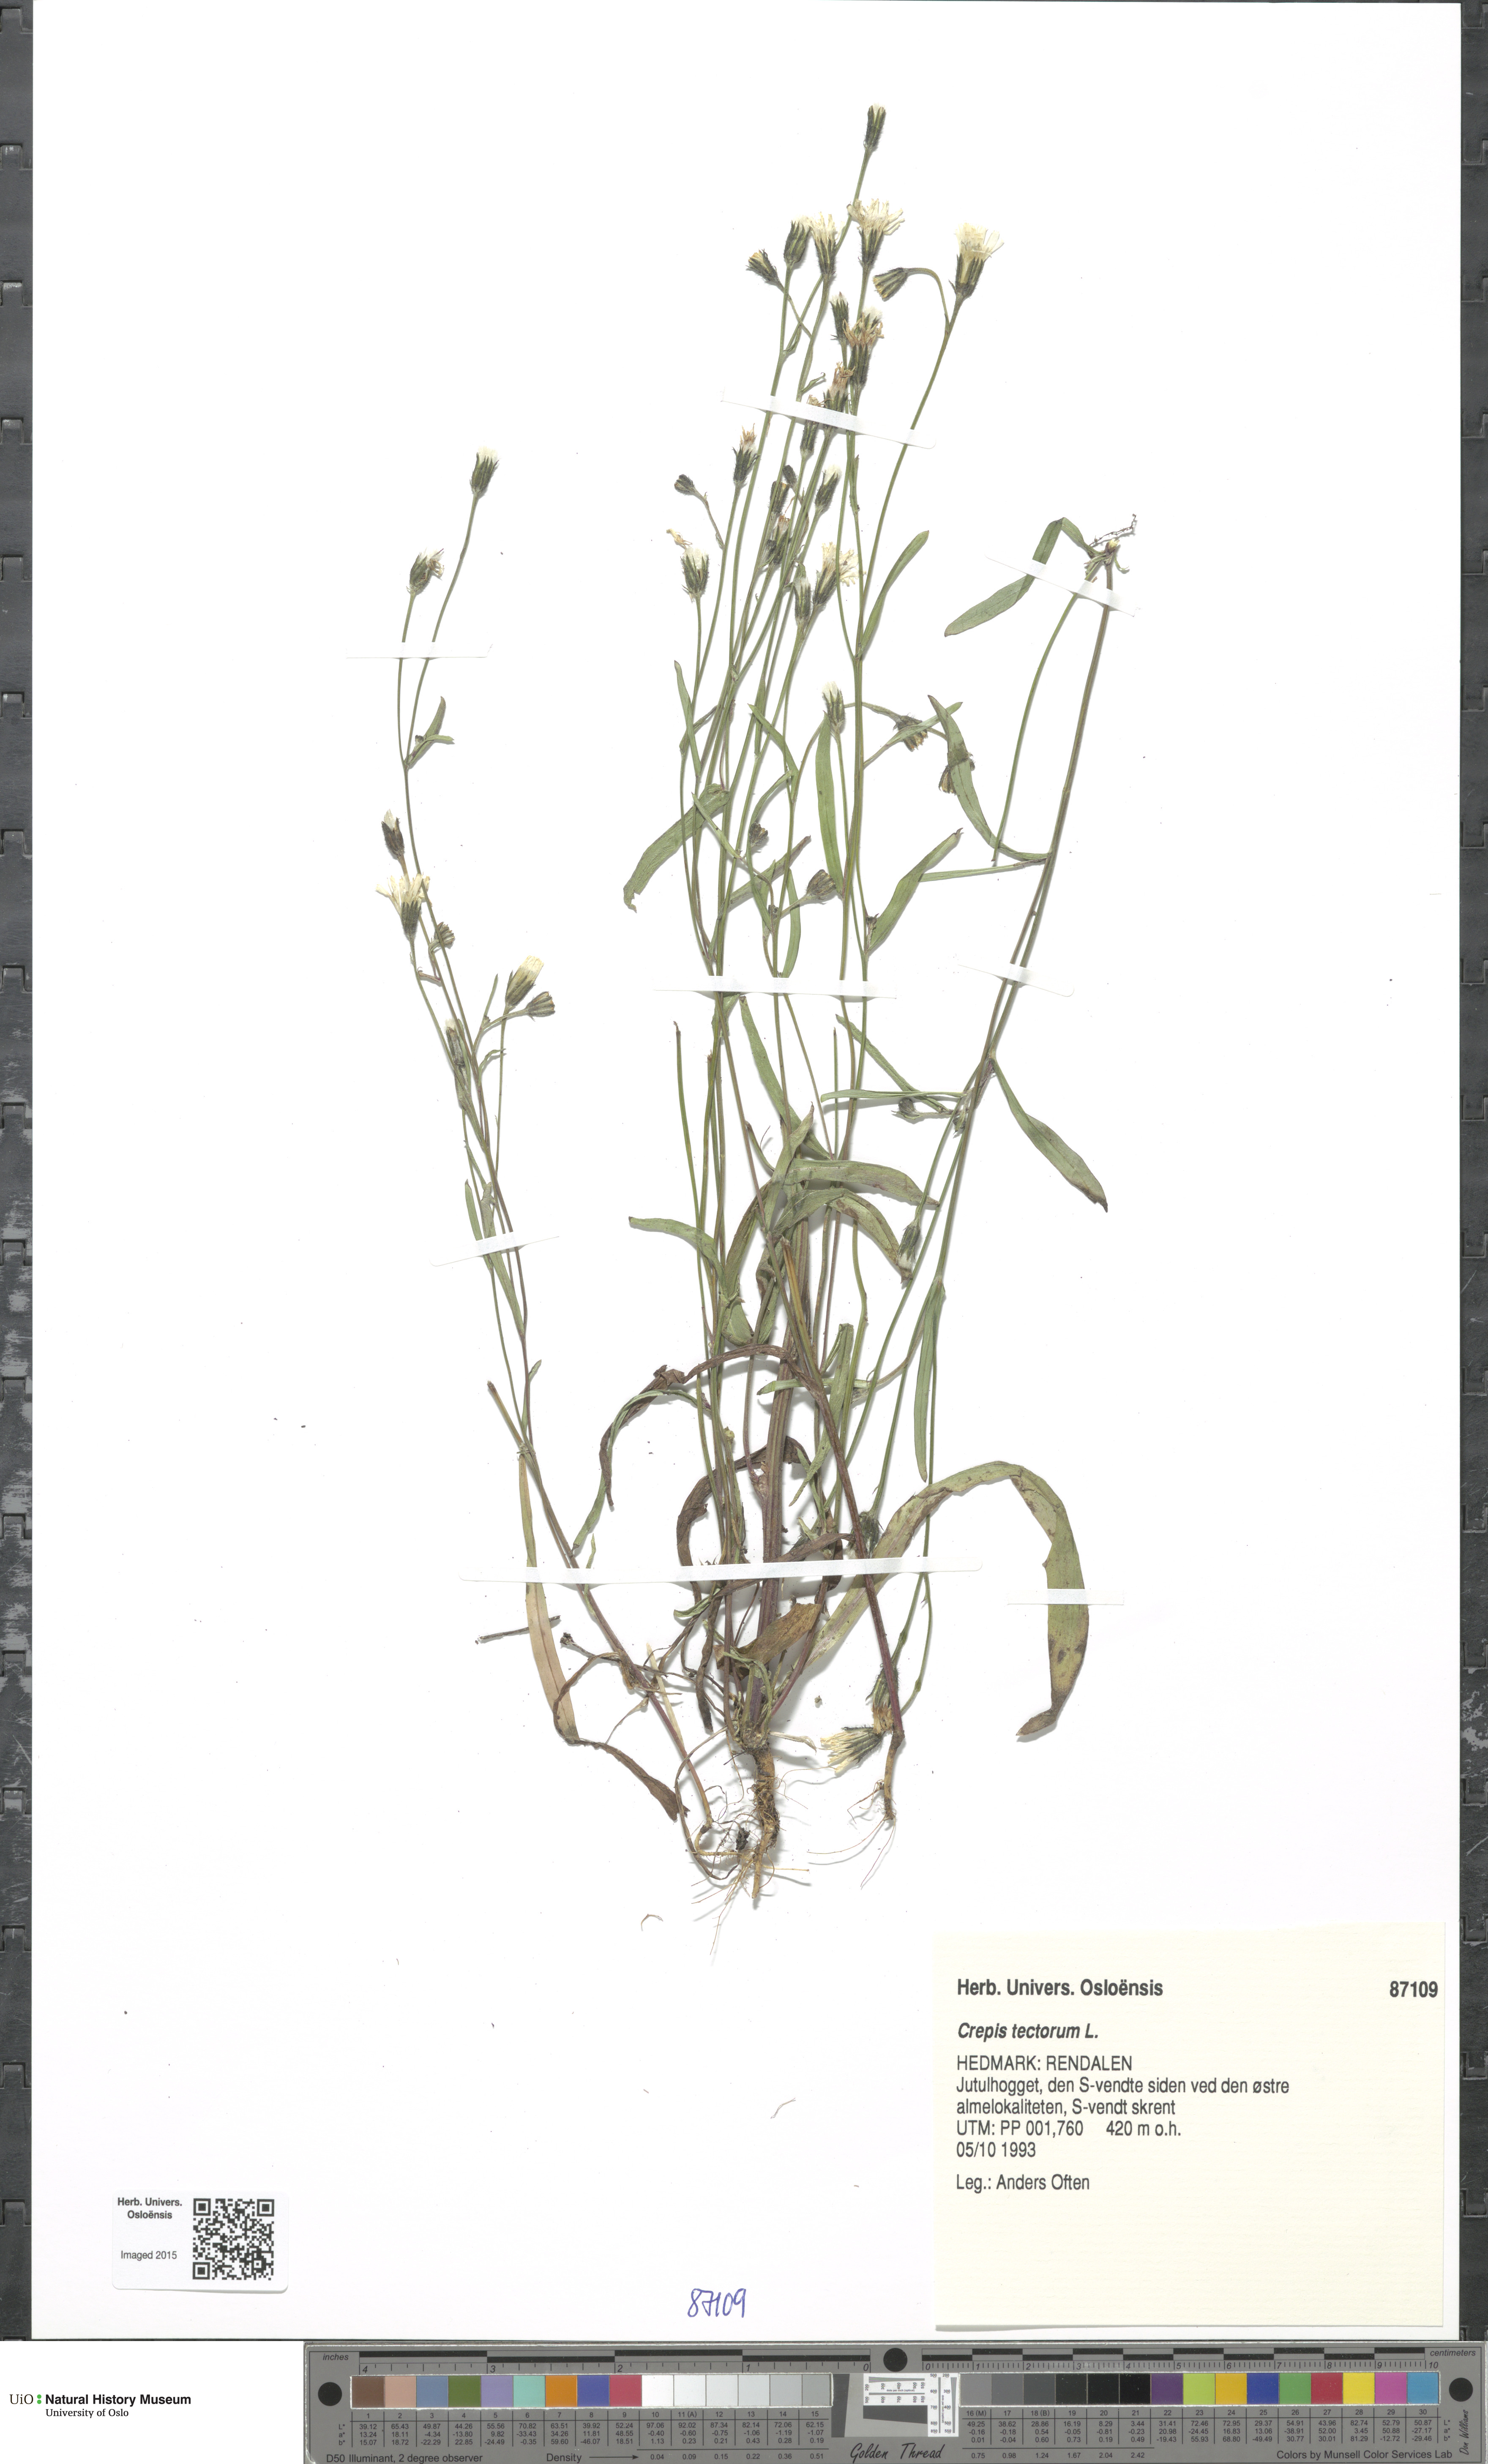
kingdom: Plantae
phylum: Tracheophyta
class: Magnoliopsida
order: Asterales
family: Asteraceae
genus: Crepis
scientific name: Crepis tectorum
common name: Narrow-leaved hawk's-beard
